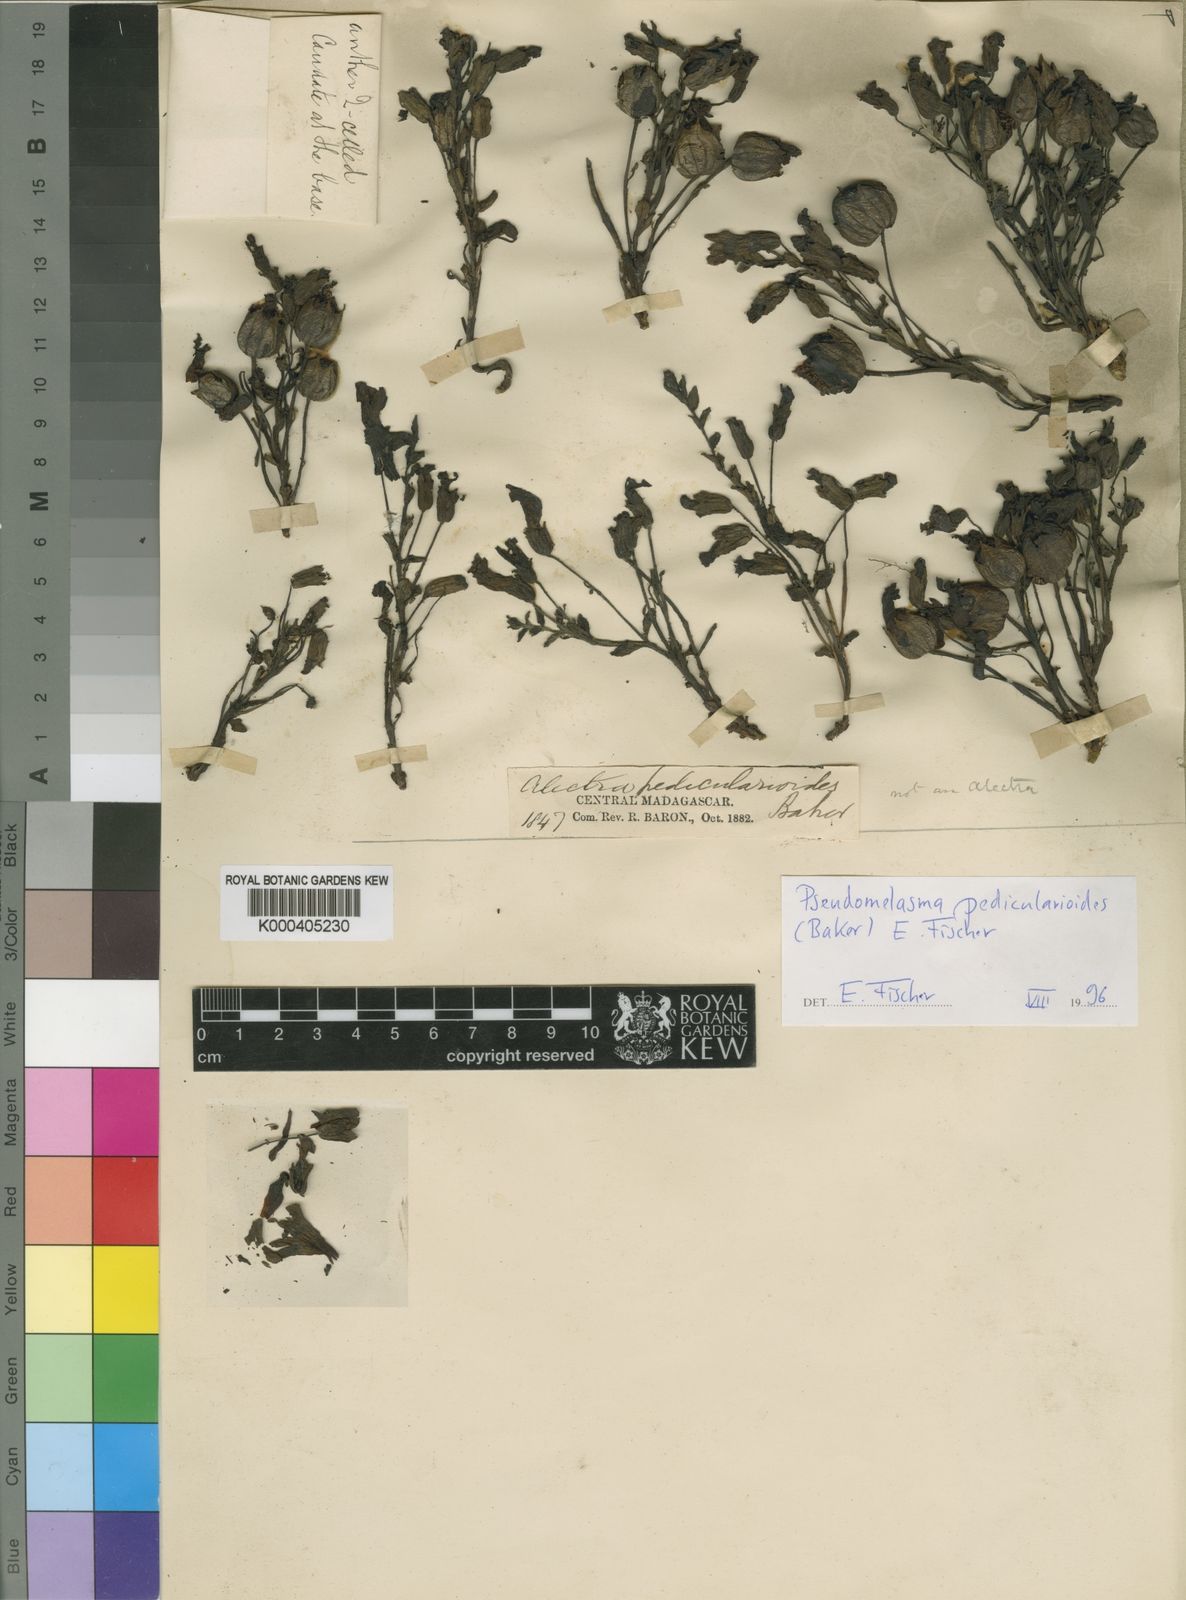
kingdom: Plantae
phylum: Tracheophyta
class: Magnoliopsida
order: Lamiales
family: Orobanchaceae
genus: Pseudomelasma
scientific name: Pseudomelasma pedicularioides
